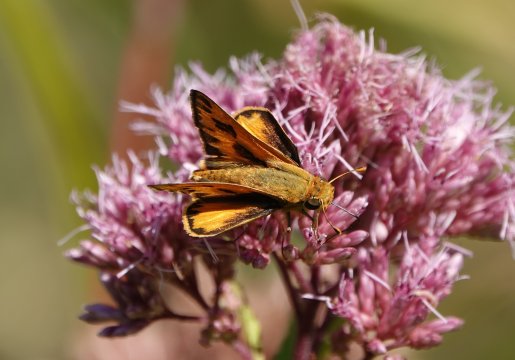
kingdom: Animalia
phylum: Arthropoda
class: Insecta
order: Lepidoptera
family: Hesperiidae
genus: Hylephila
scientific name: Hylephila phyleus
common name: Fiery Skipper
